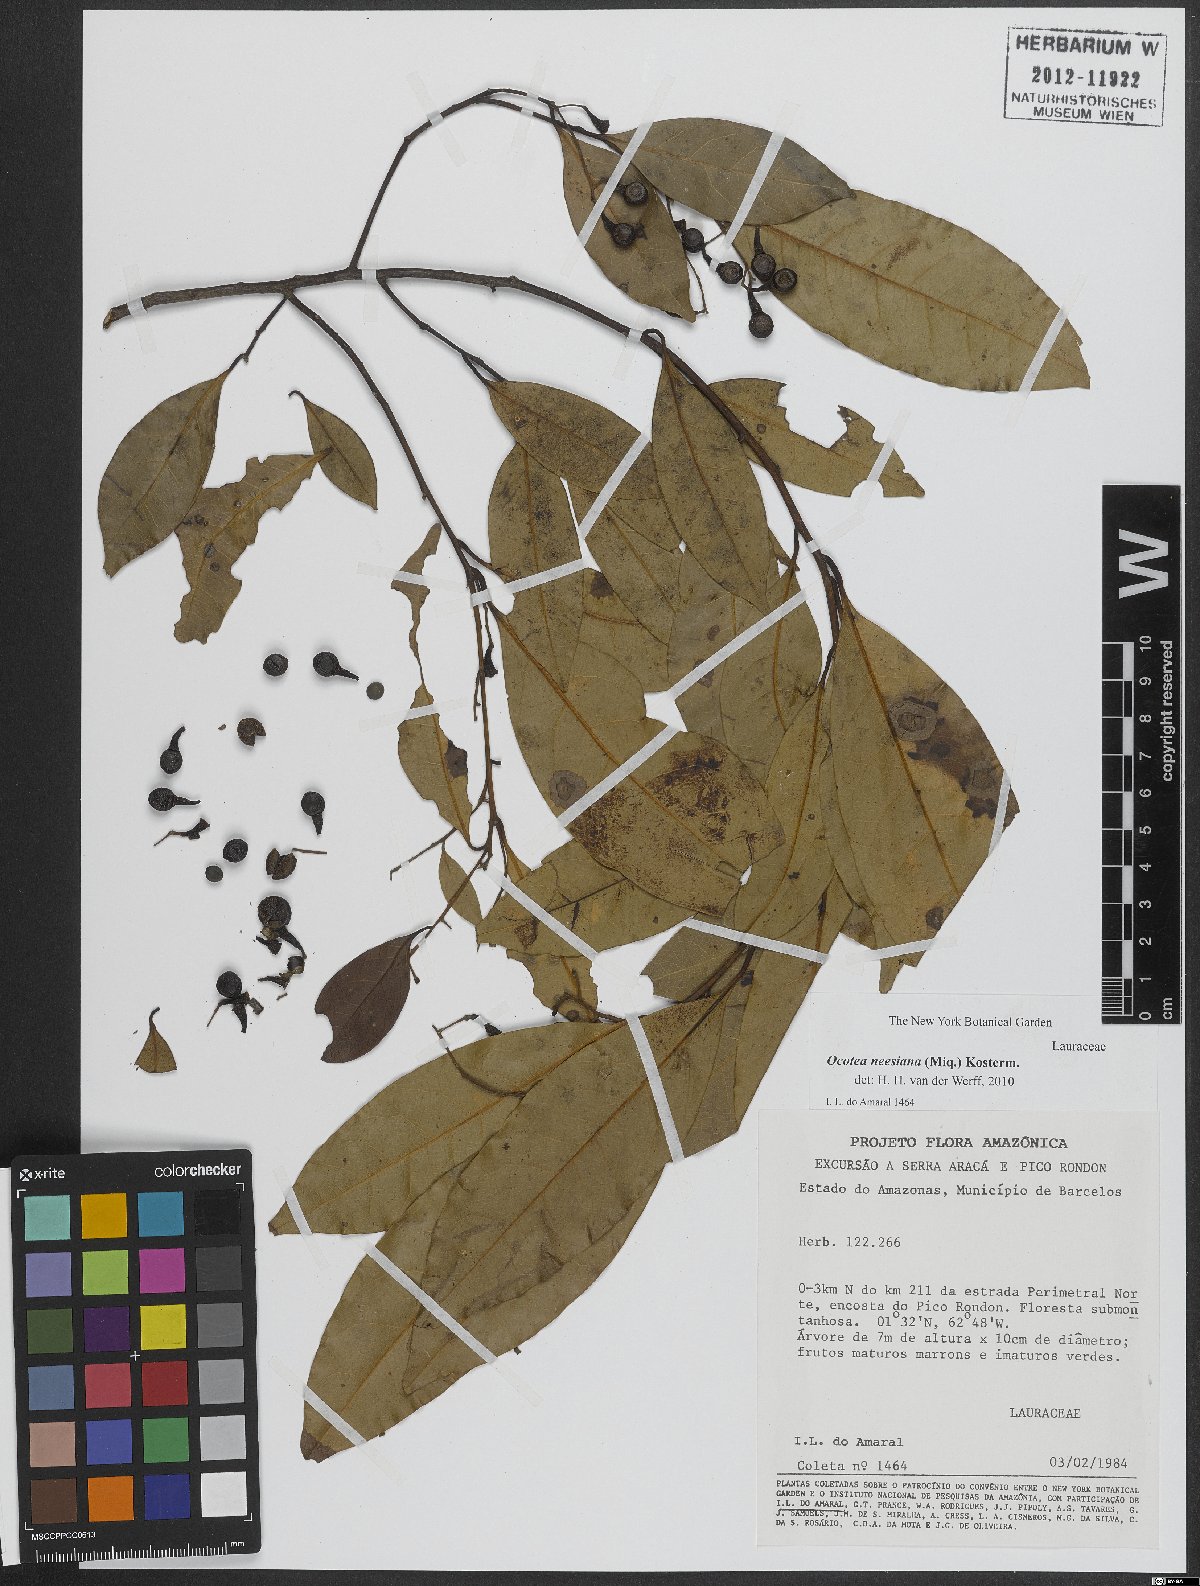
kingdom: Plantae
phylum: Tracheophyta
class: Magnoliopsida
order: Laurales
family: Lauraceae
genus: Ocotea
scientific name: Ocotea neesiana
